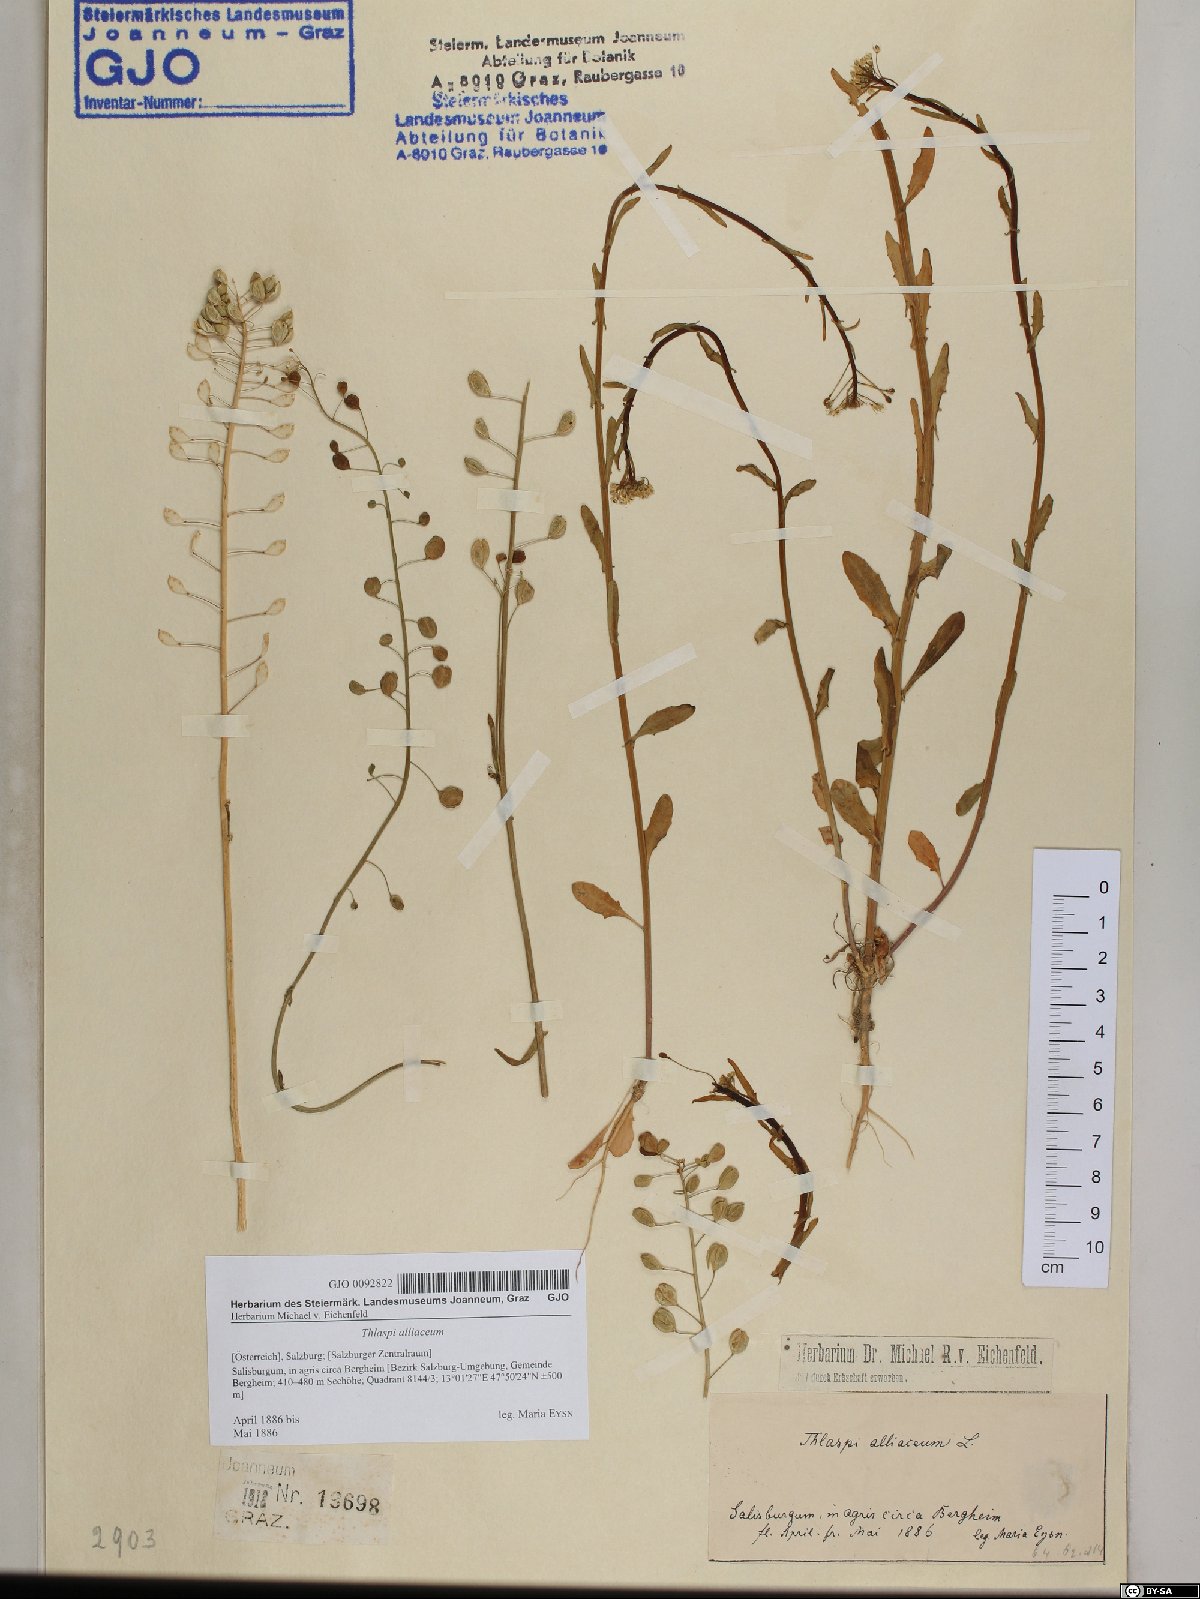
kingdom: Plantae
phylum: Tracheophyta
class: Magnoliopsida
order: Brassicales
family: Brassicaceae
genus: Mummenhoffia
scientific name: Mummenhoffia alliacea
